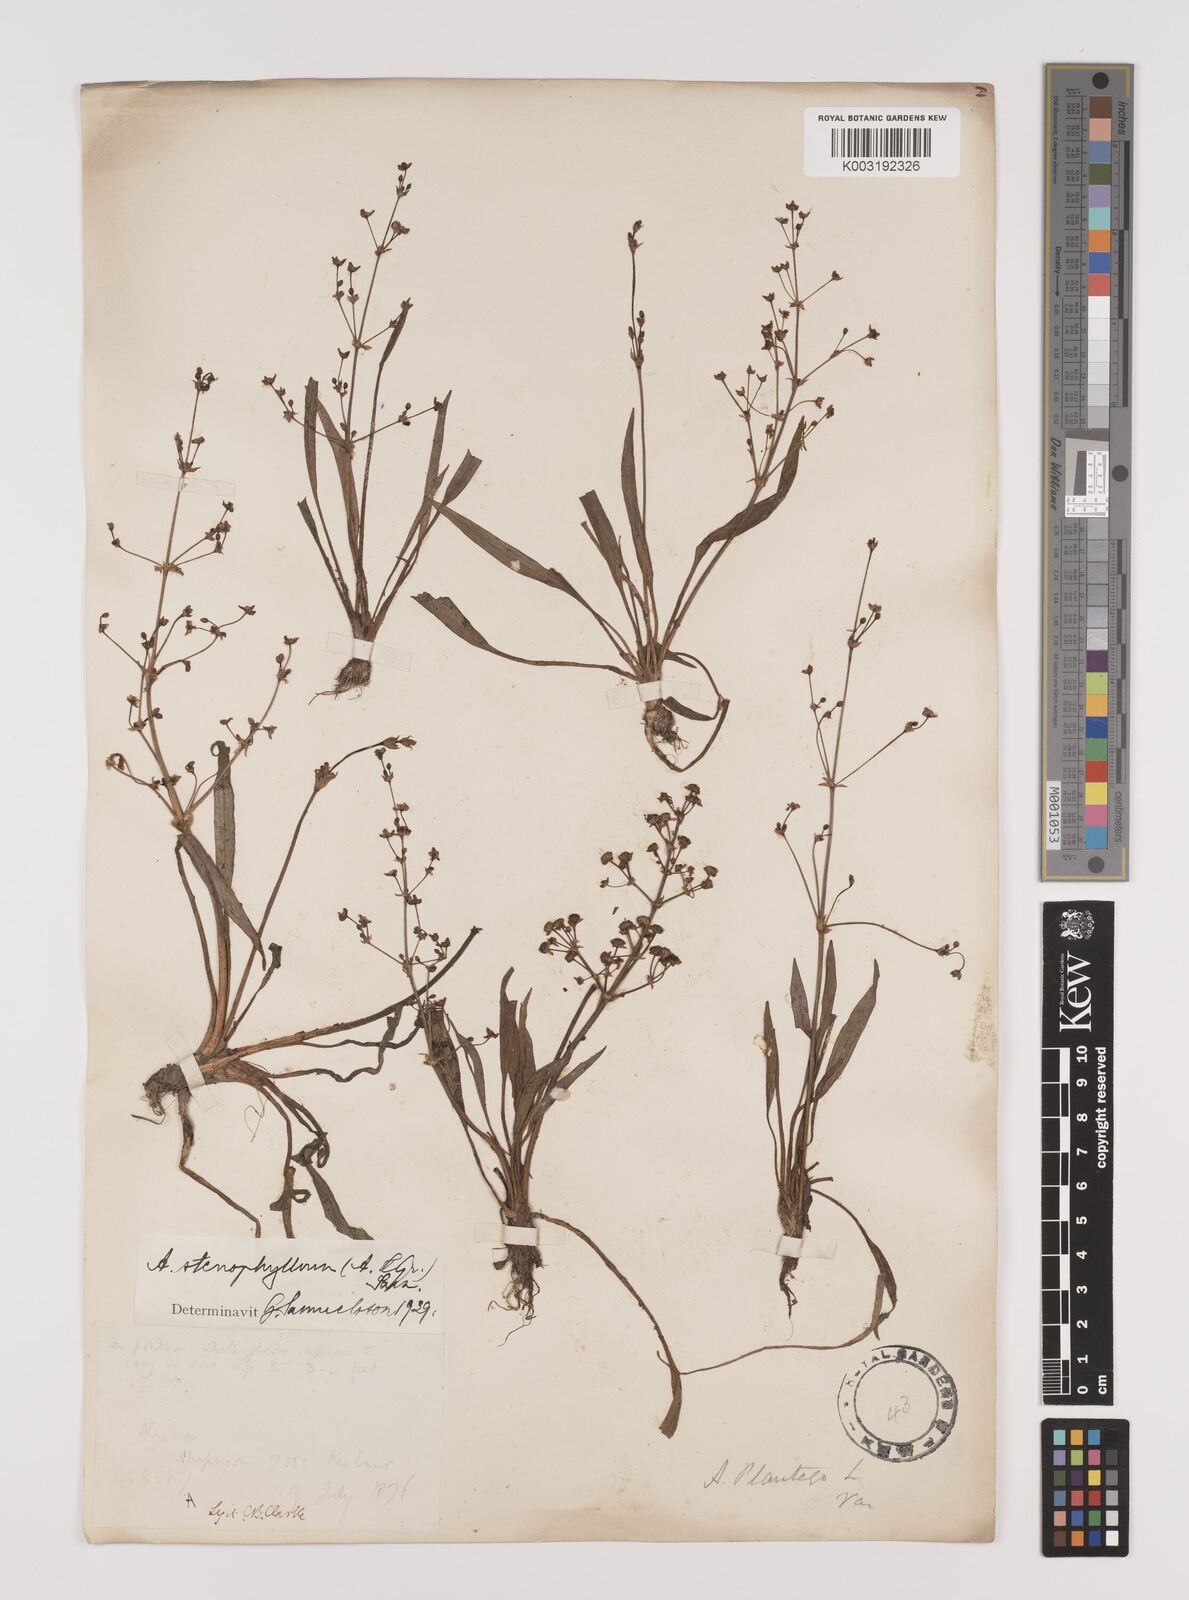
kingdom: Plantae
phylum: Tracheophyta
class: Liliopsida
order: Alismatales
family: Alismataceae
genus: Alisma
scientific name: Alisma lanceolatum
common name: Narrow-leaved water-plantain
